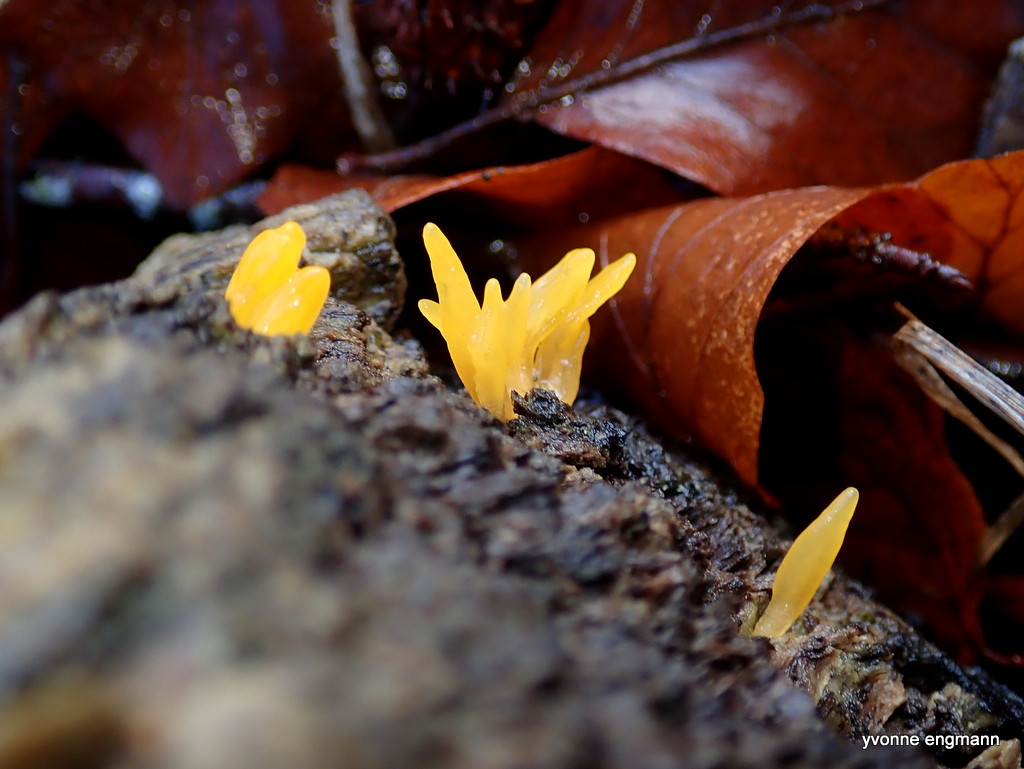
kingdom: Fungi
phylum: Basidiomycota
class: Dacrymycetes
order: Dacrymycetales
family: Dacrymycetaceae
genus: Calocera
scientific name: Calocera cornea
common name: liden guldgaffel
